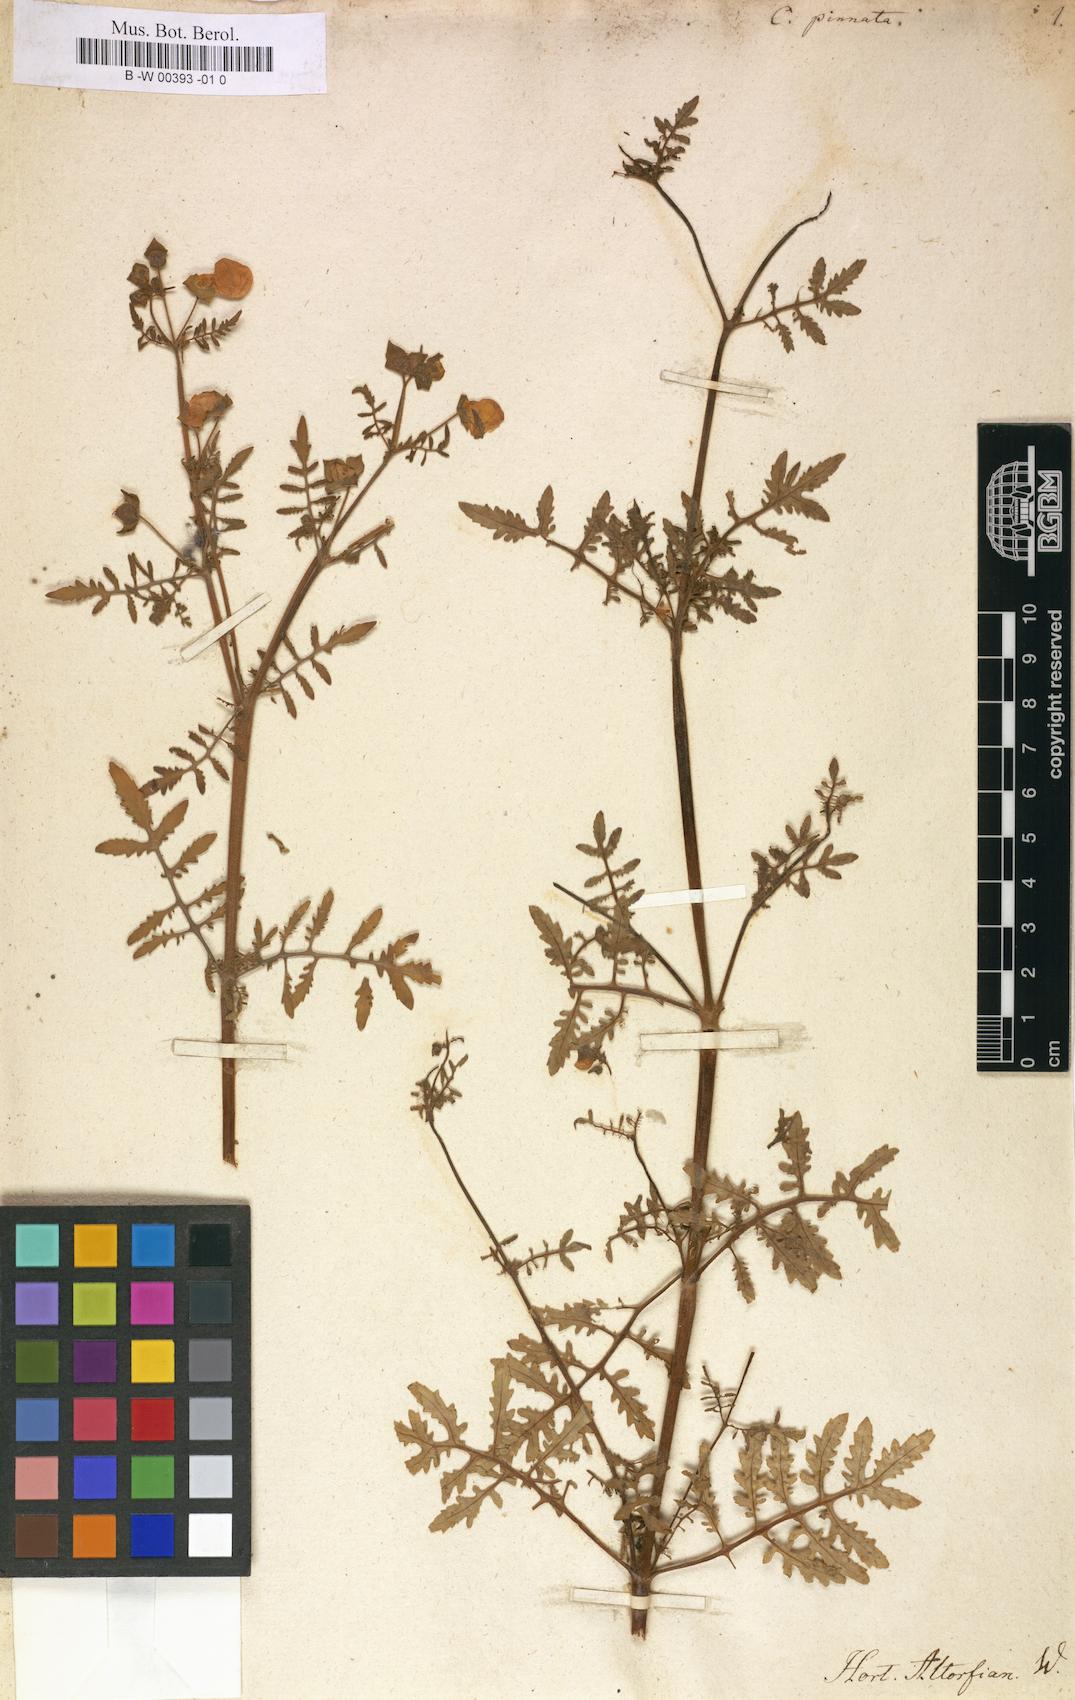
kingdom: Plantae
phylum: Tracheophyta
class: Magnoliopsida
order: Lamiales
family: Calceolariaceae
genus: Calceolaria
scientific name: Calceolaria pinnata
